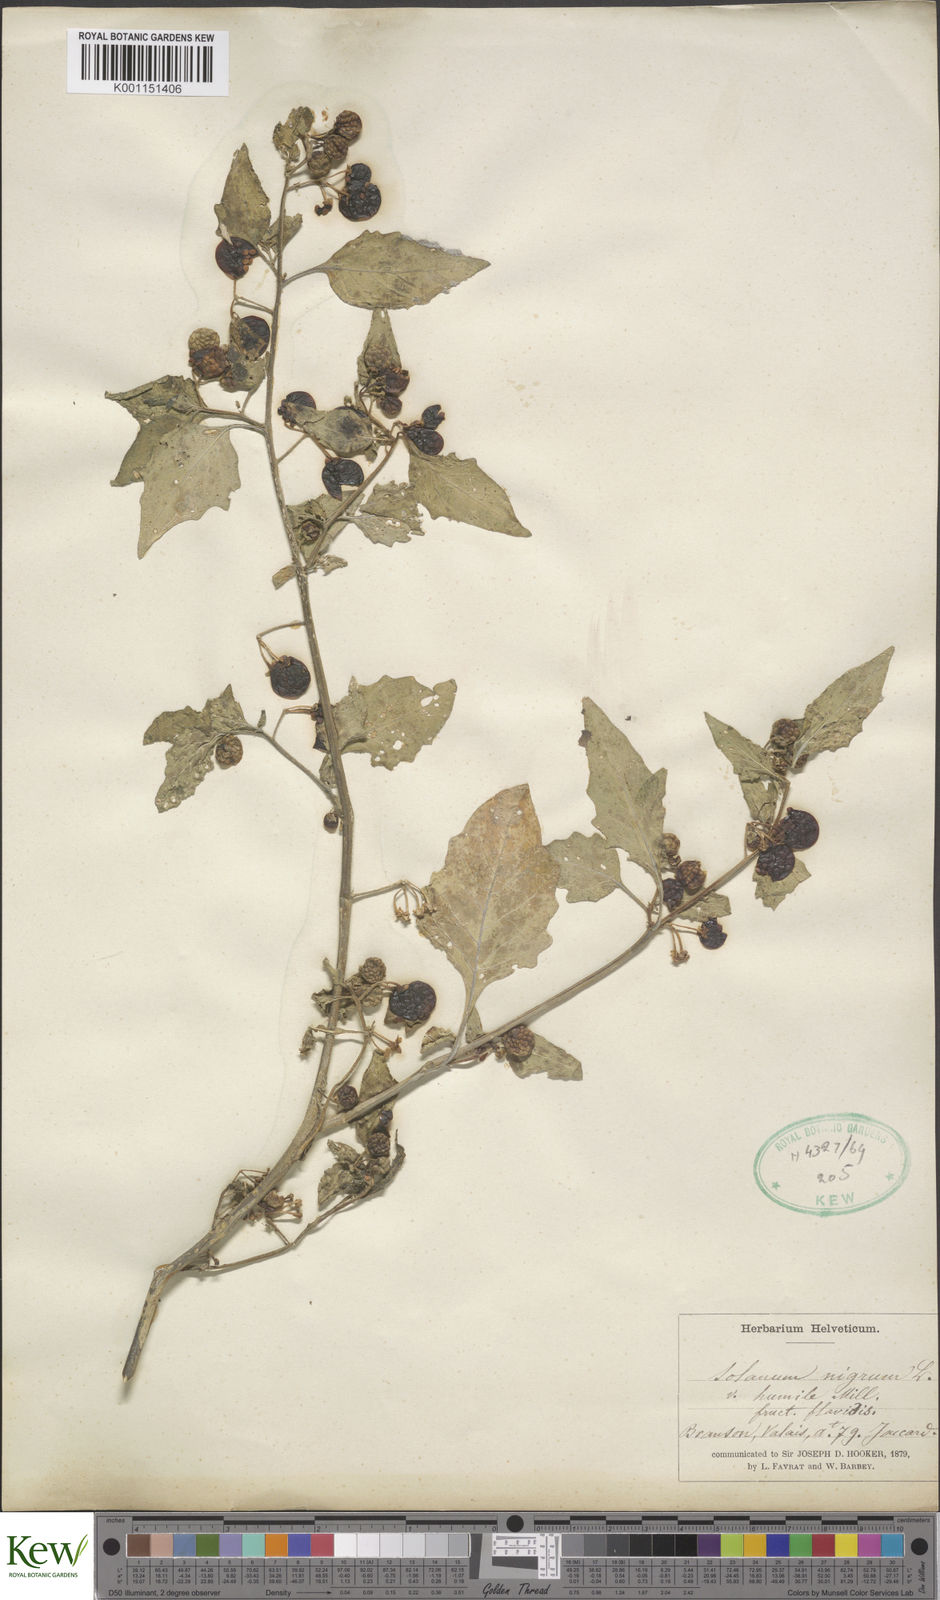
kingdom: Plantae
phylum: Tracheophyta
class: Magnoliopsida
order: Solanales
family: Solanaceae
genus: Solanum
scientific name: Solanum villosum
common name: Red nightshade
